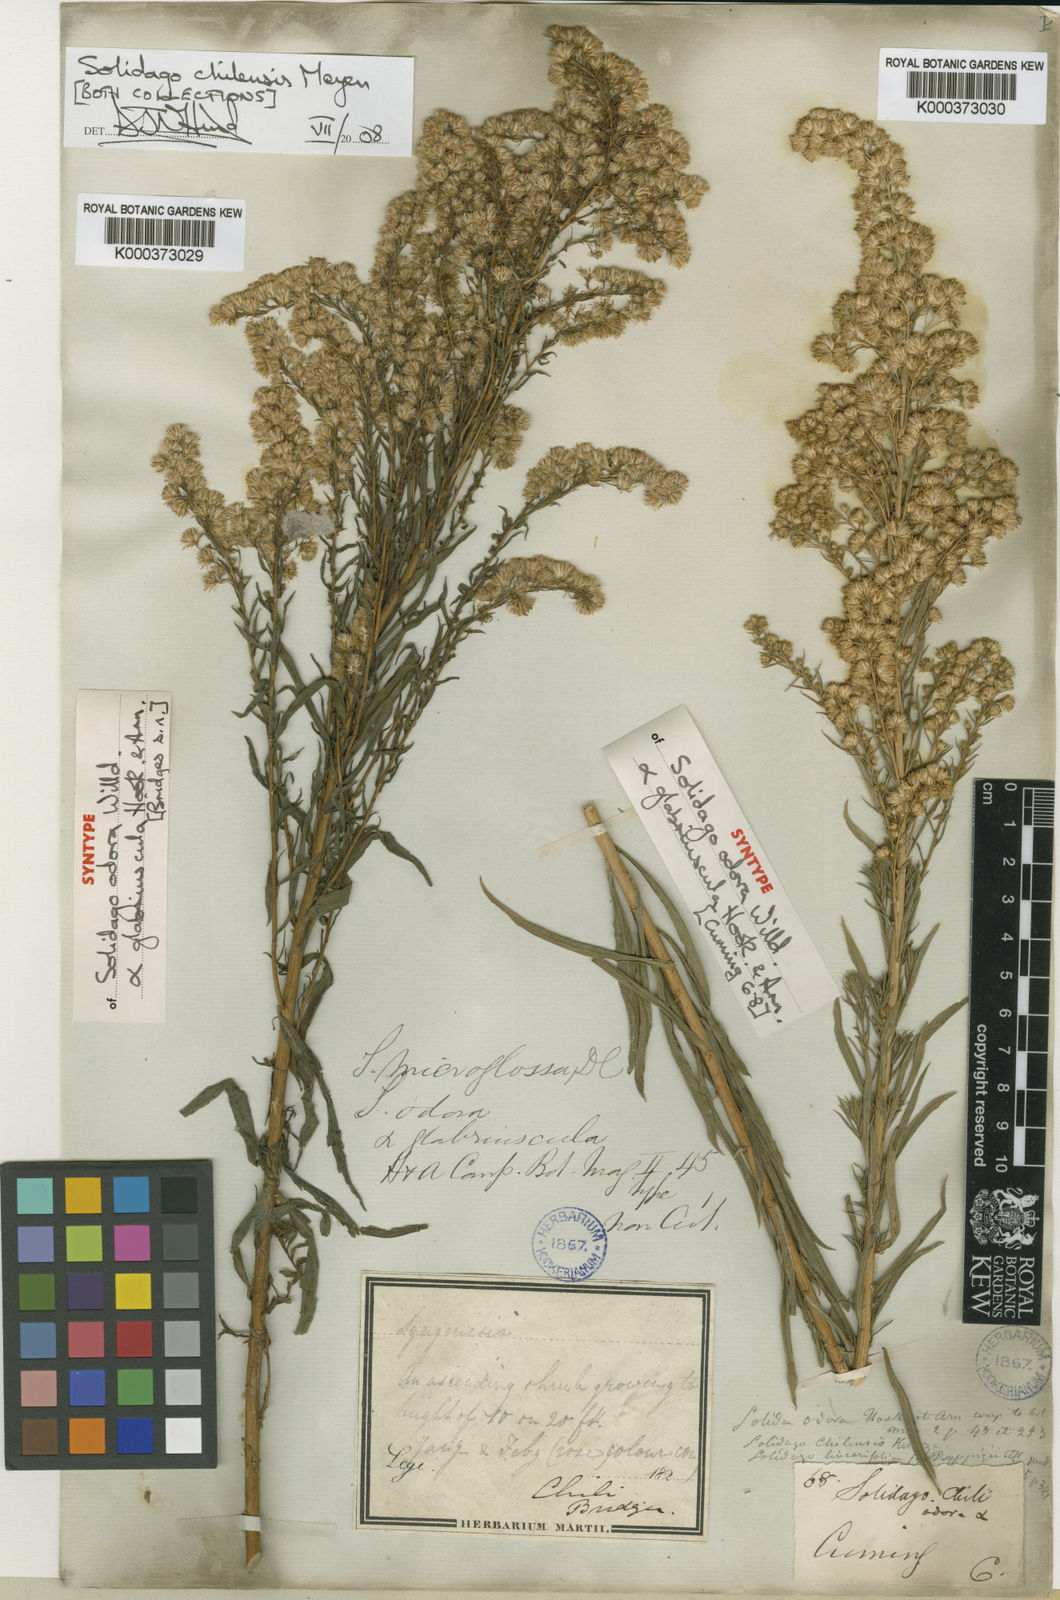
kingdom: Plantae
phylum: Tracheophyta
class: Magnoliopsida
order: Asterales
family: Asteraceae
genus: Solidago
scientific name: Solidago chilensis
